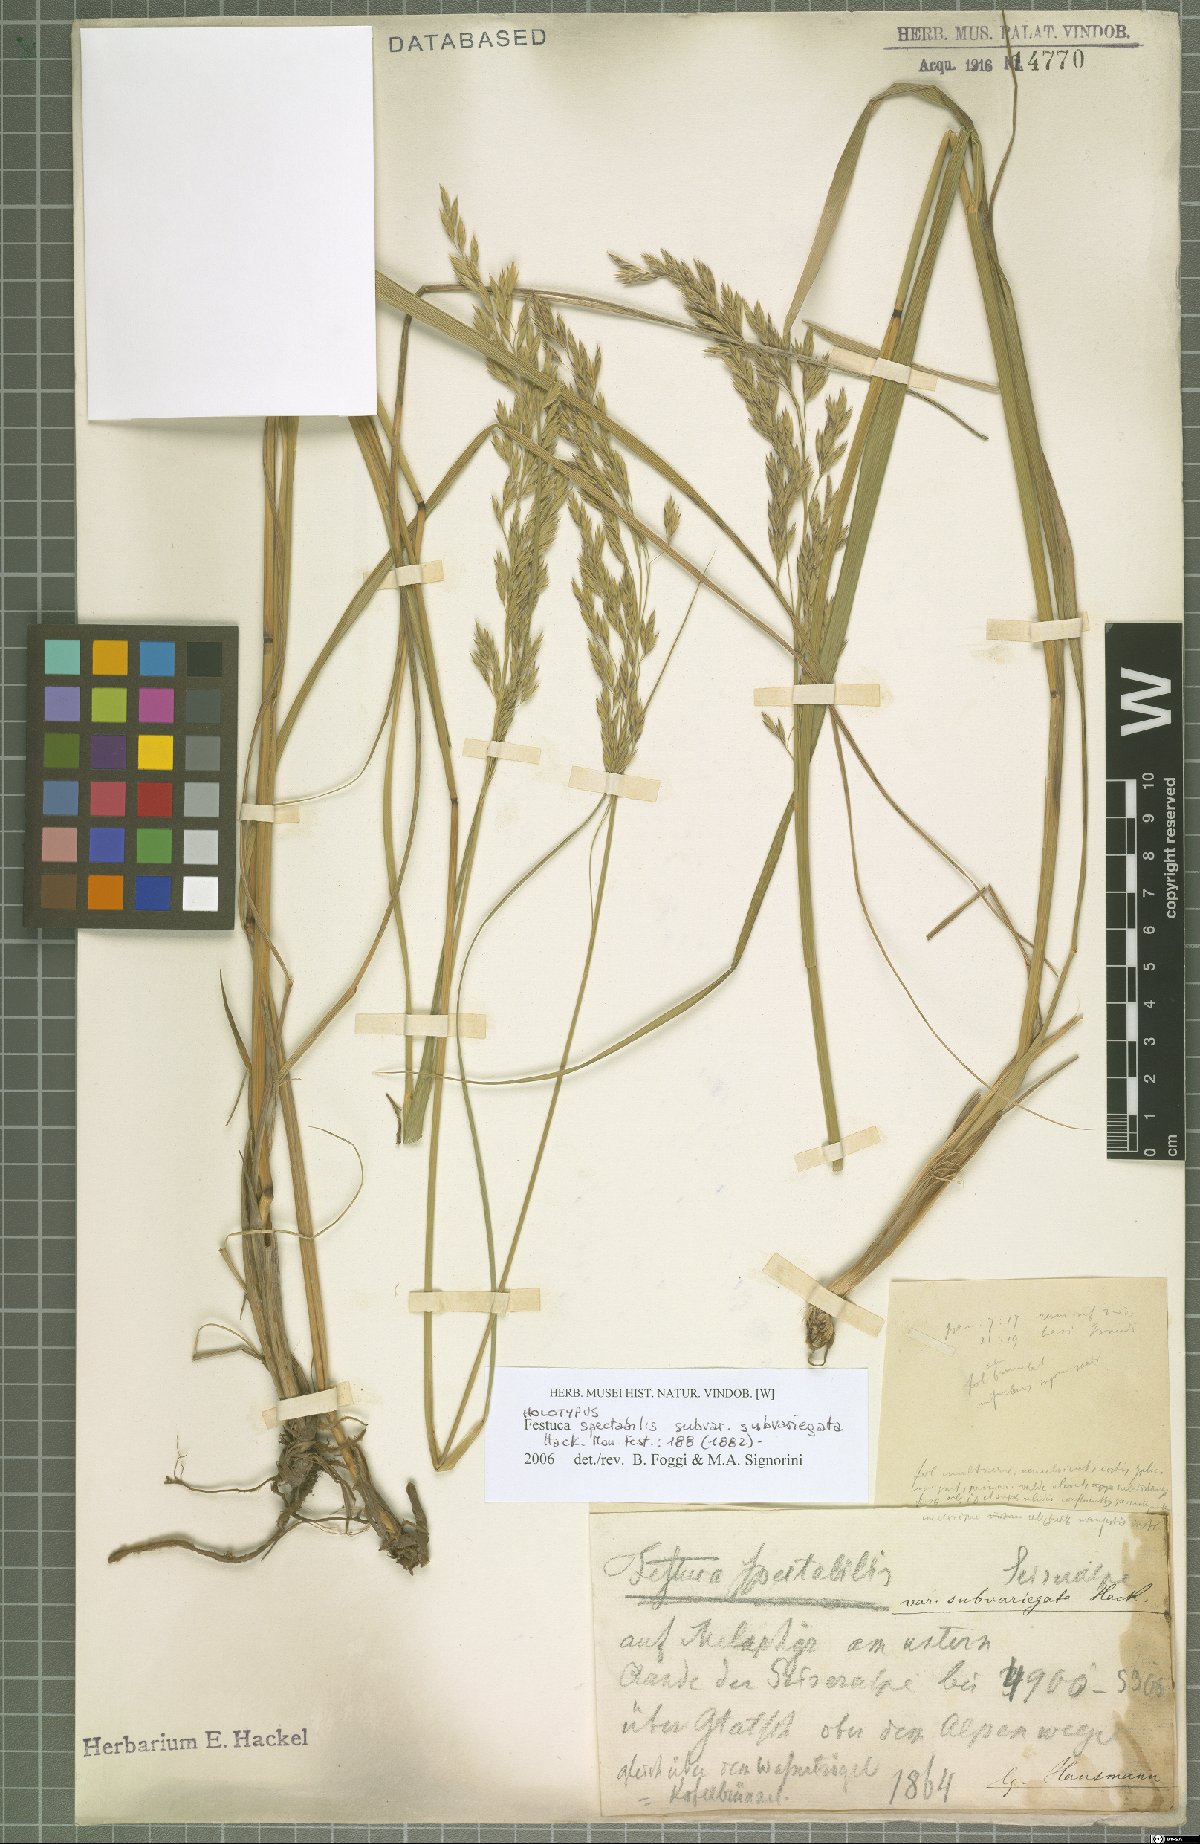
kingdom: Plantae
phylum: Tracheophyta
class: Liliopsida
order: Poales
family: Poaceae
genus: Festuca
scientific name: Festuca spectabilis
